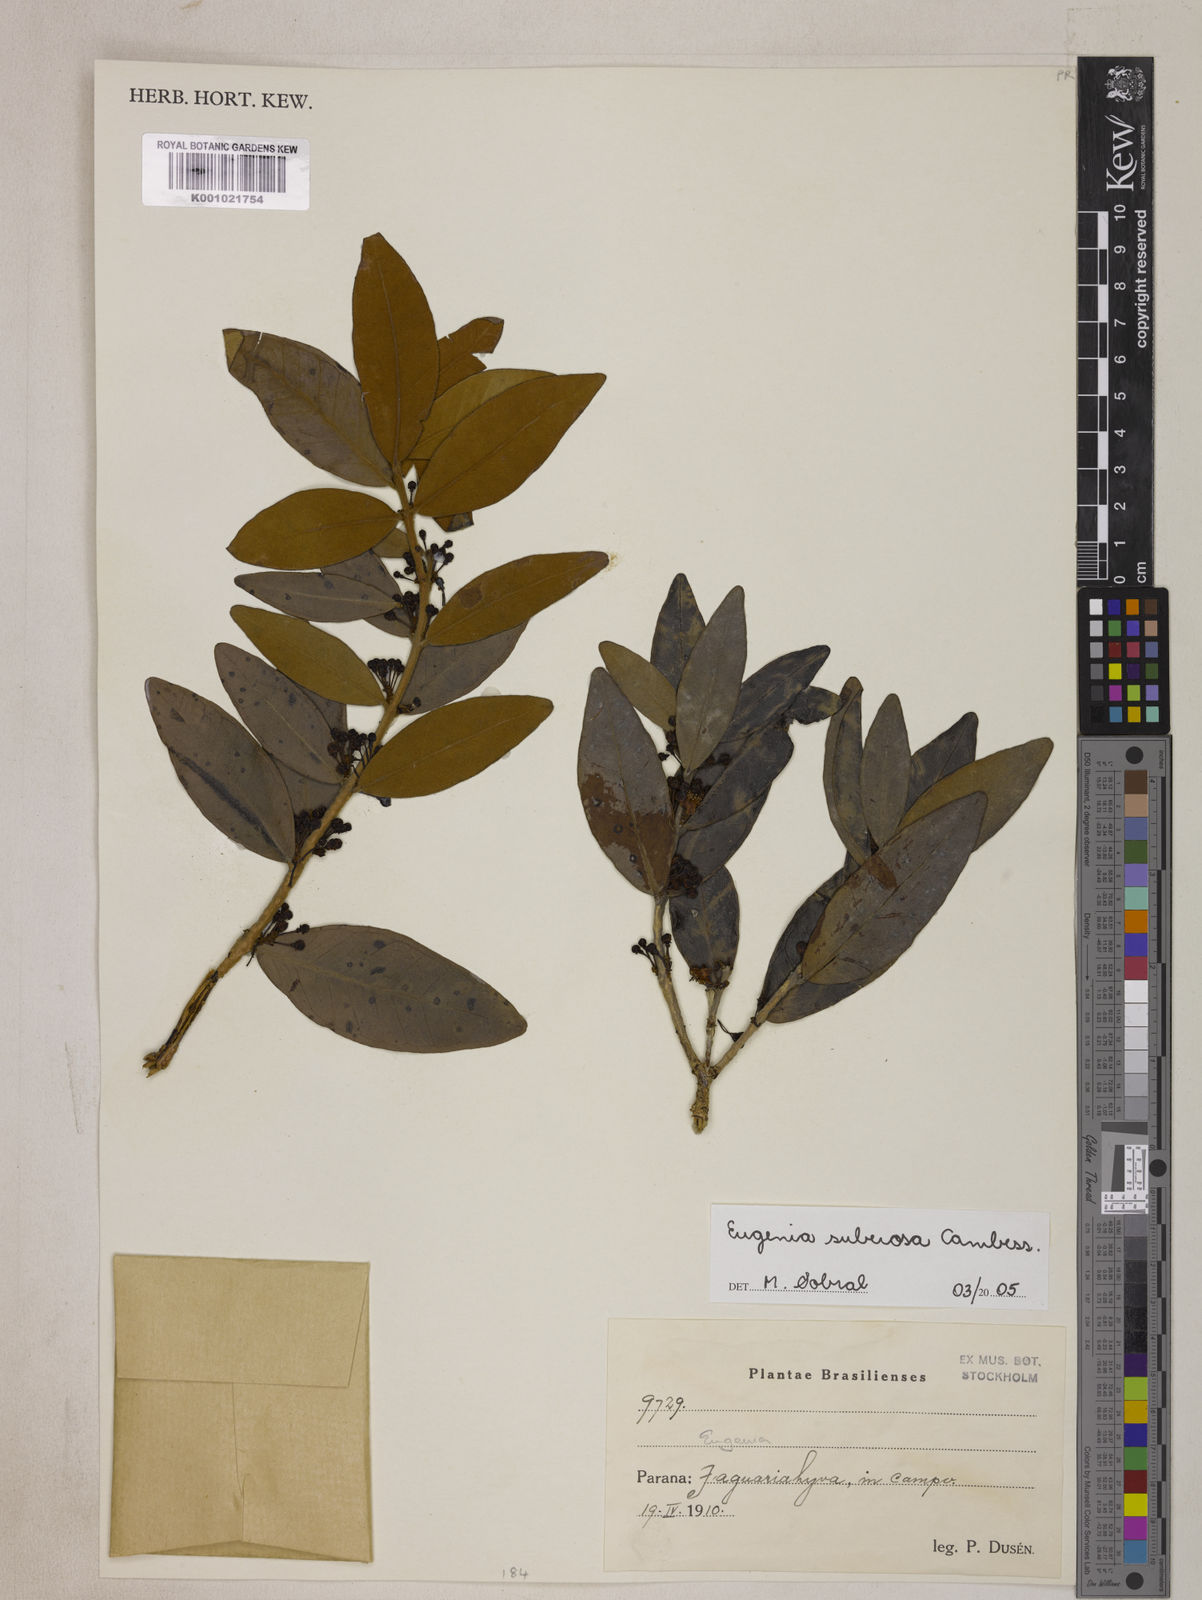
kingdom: Plantae
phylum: Tracheophyta
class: Magnoliopsida
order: Myrtales
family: Myrtaceae
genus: Eugenia
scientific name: Eugenia suberosa
